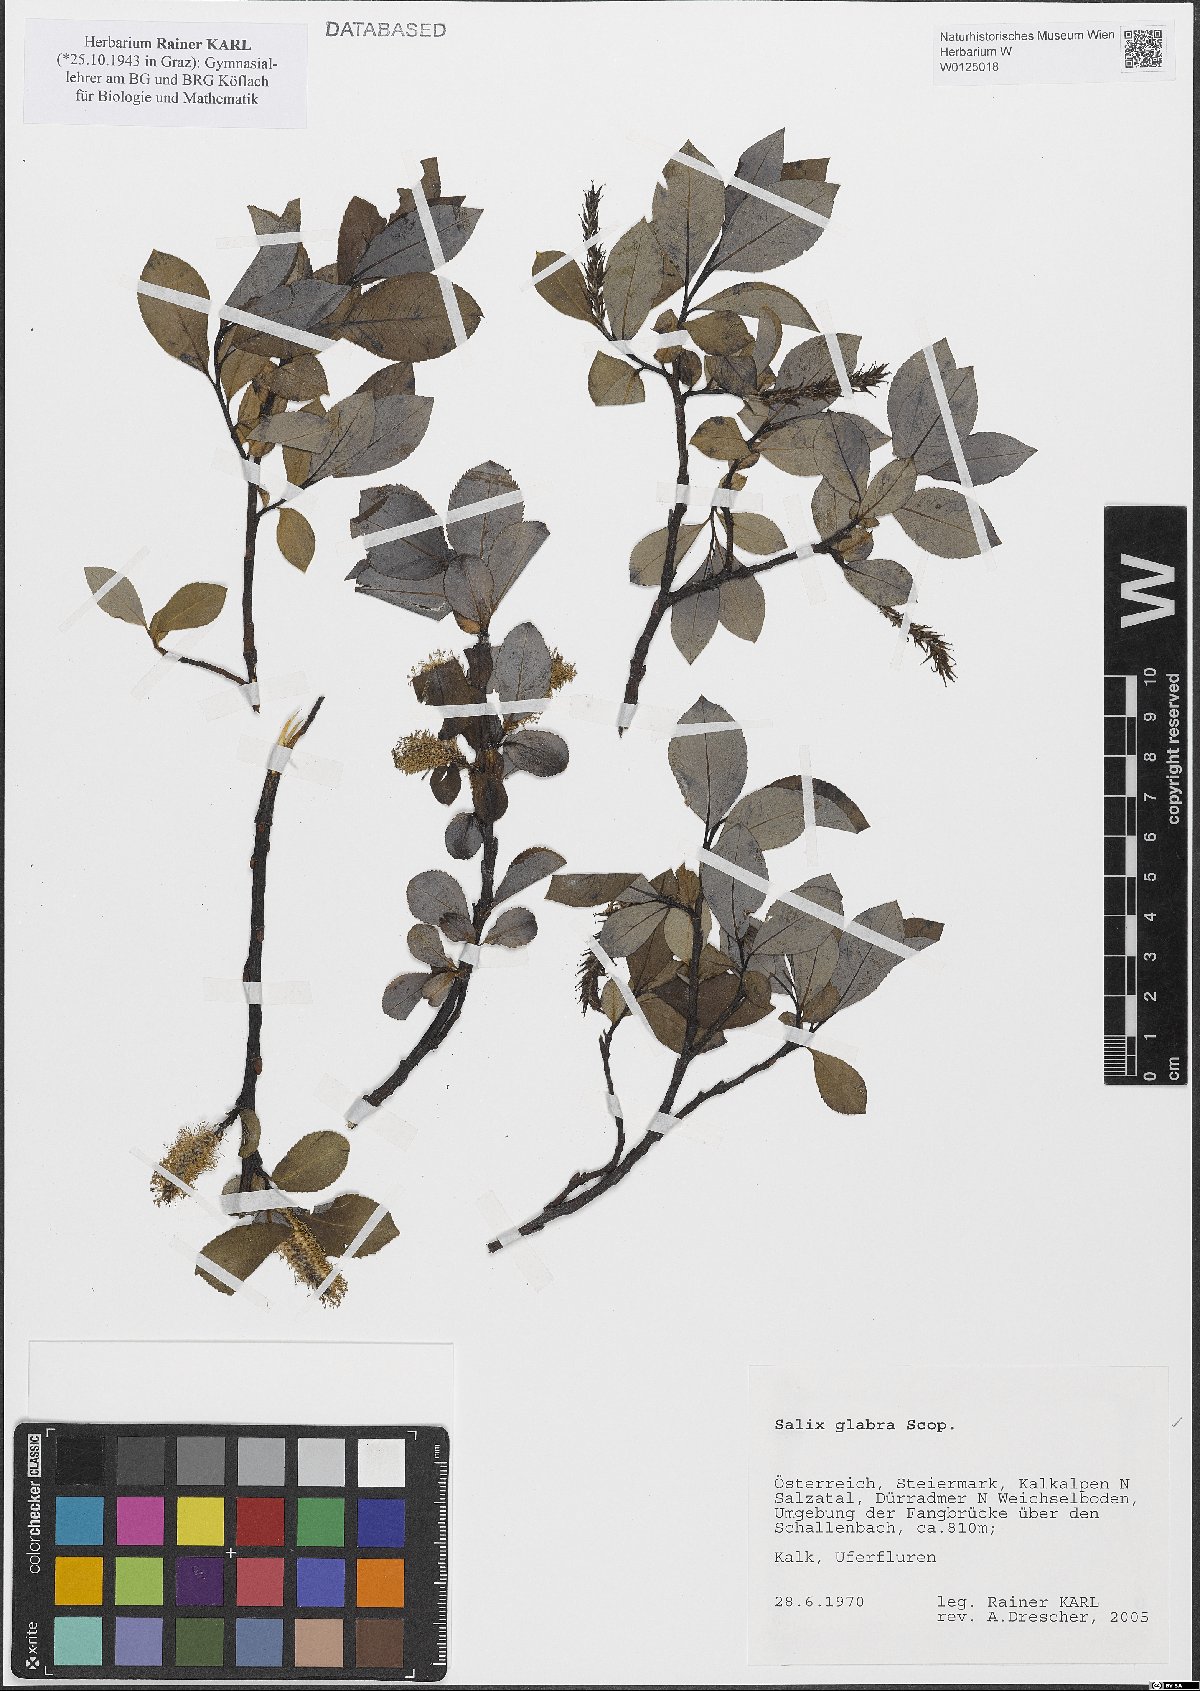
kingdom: Plantae
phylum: Tracheophyta
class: Magnoliopsida
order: Malpighiales
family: Salicaceae
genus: Salix
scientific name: Salix glabra
